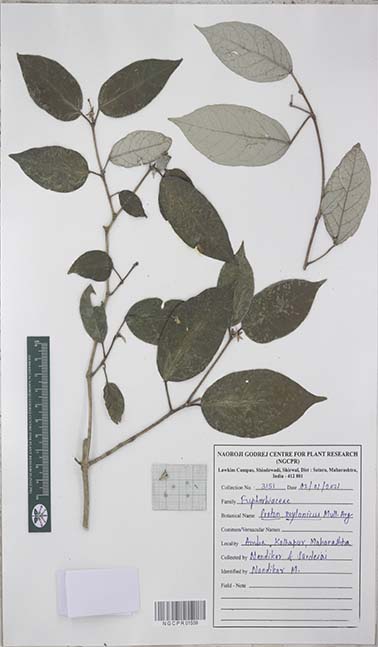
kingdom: Plantae
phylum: Tracheophyta
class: Magnoliopsida
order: Malpighiales
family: Euphorbiaceae
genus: Croton
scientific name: Croton zeylanicus
